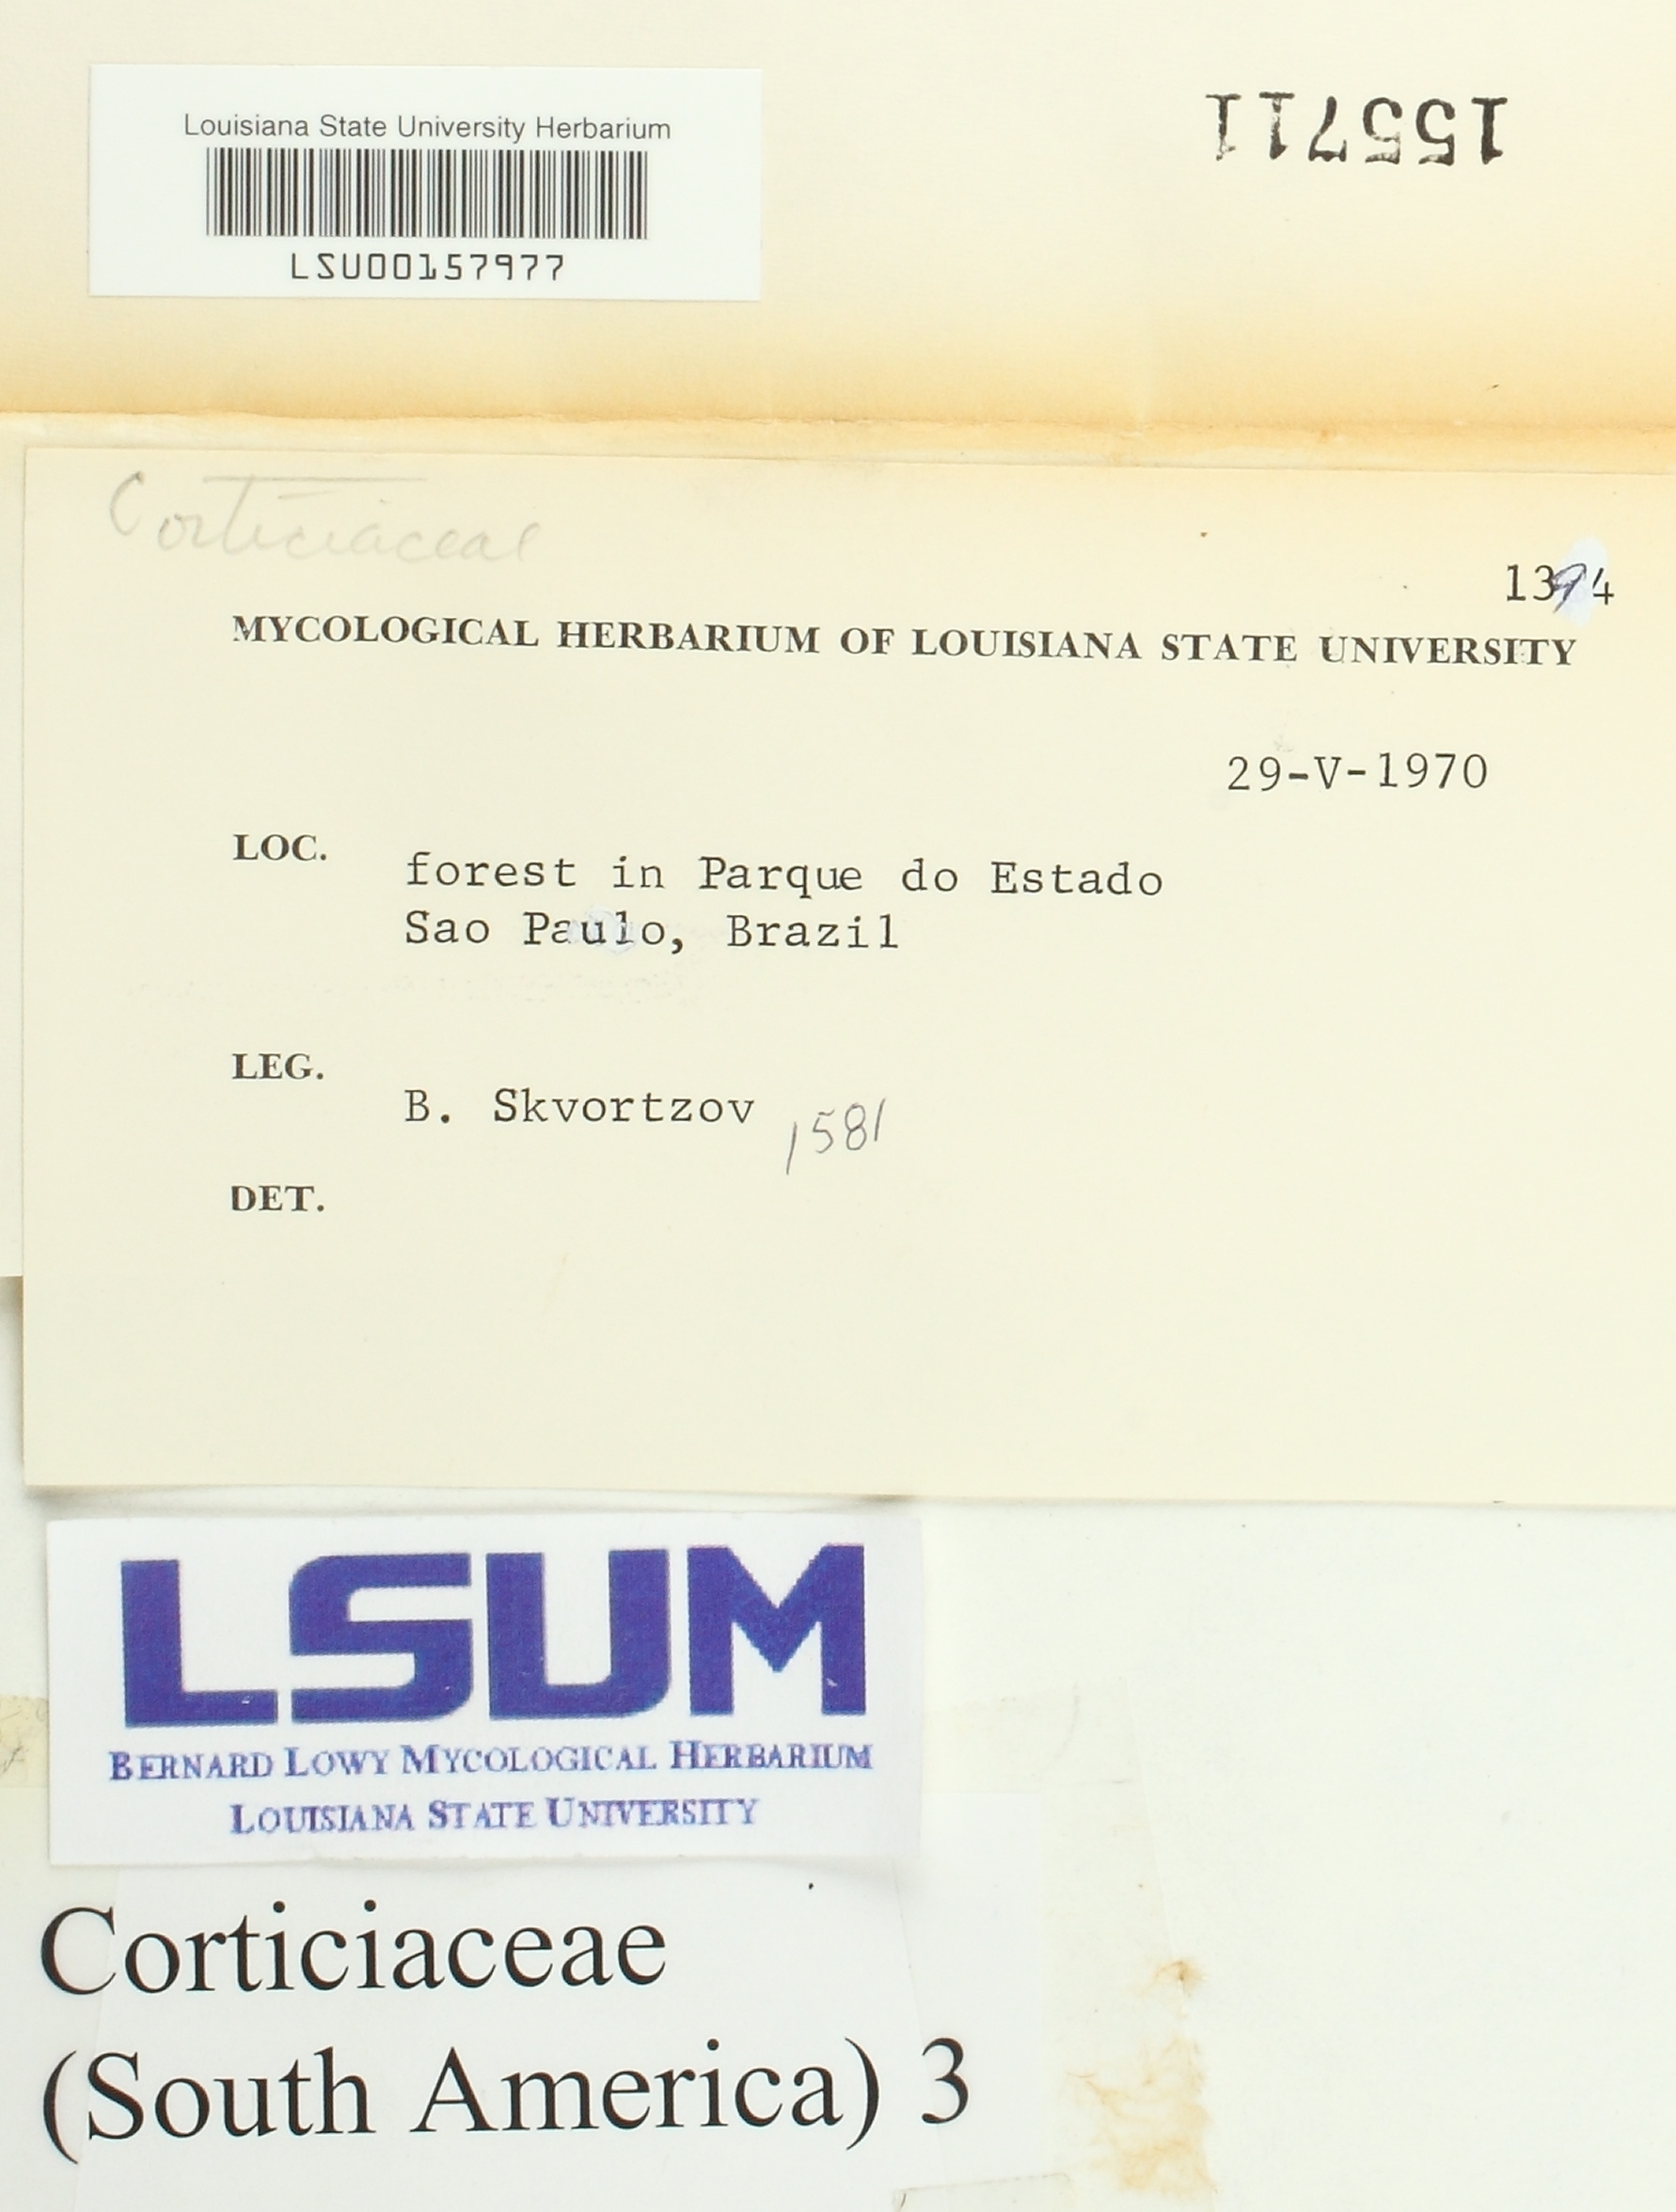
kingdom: Fungi
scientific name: Fungi
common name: Fungi
